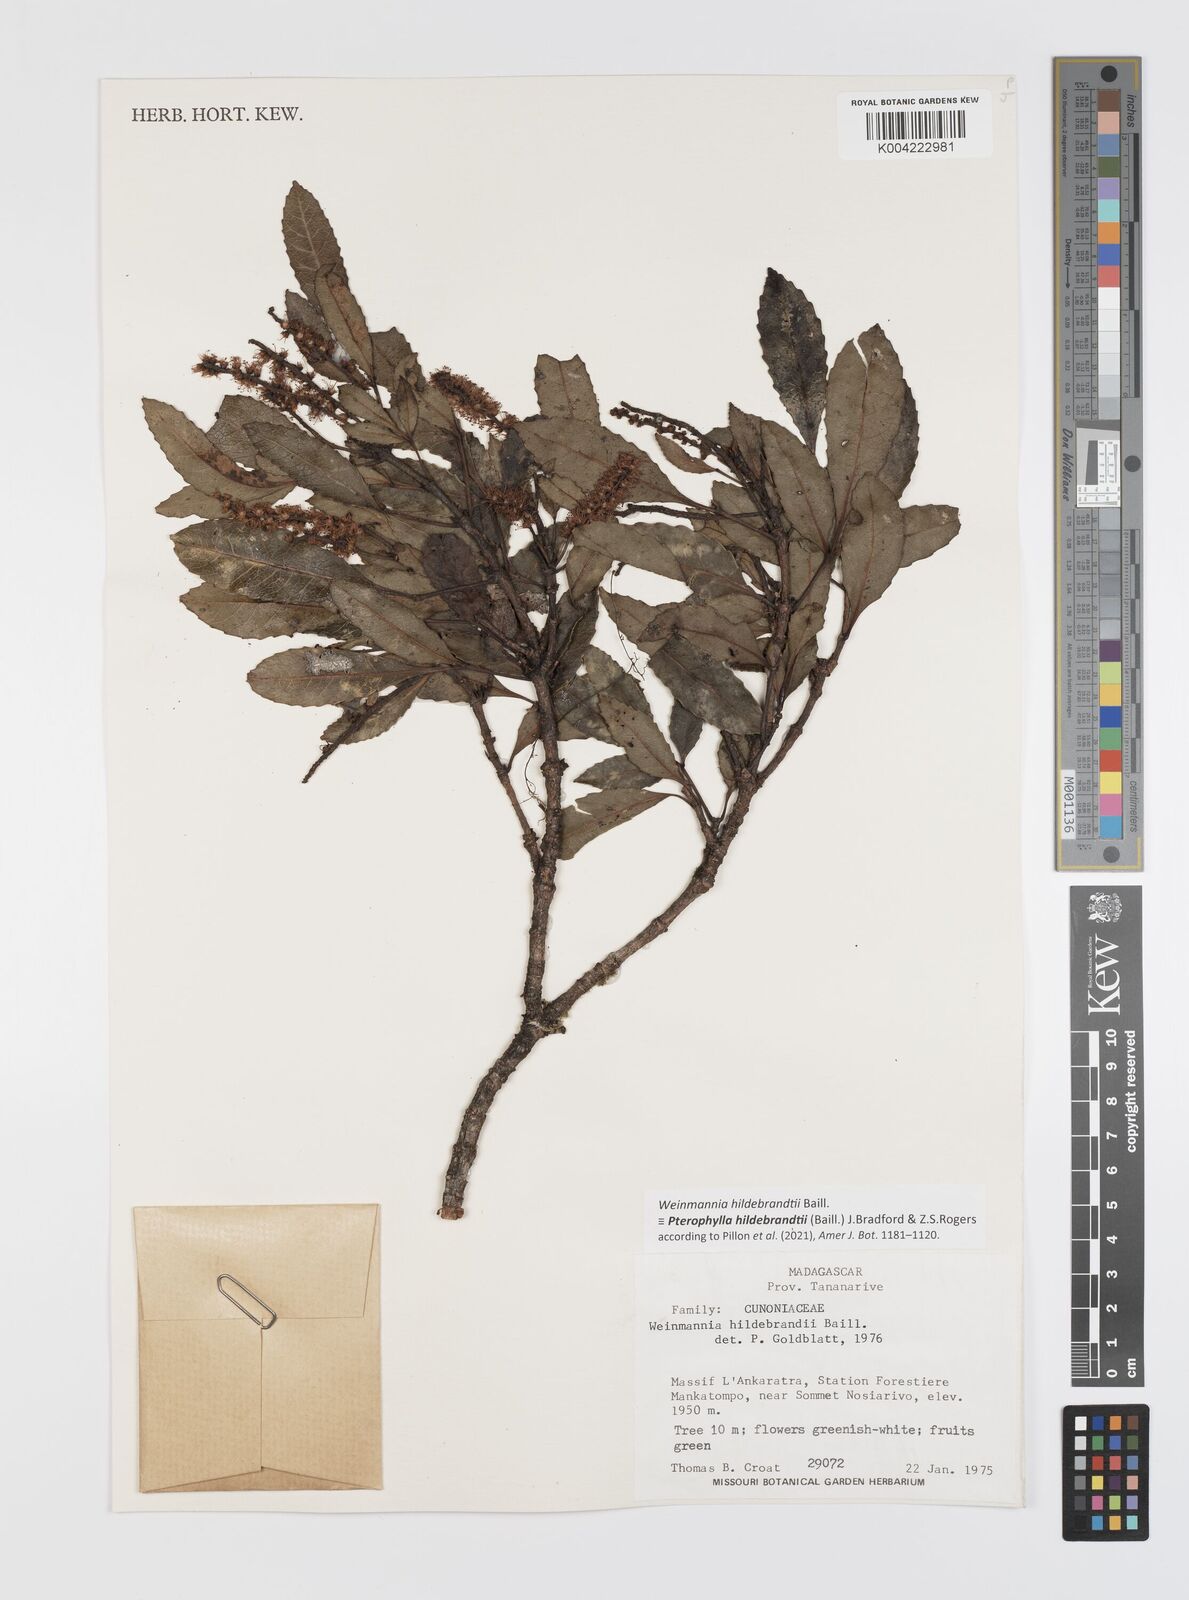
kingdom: Plantae
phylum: Tracheophyta
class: Magnoliopsida
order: Oxalidales
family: Cunoniaceae
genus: Pterophylla
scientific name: Pterophylla hildebrandtii
